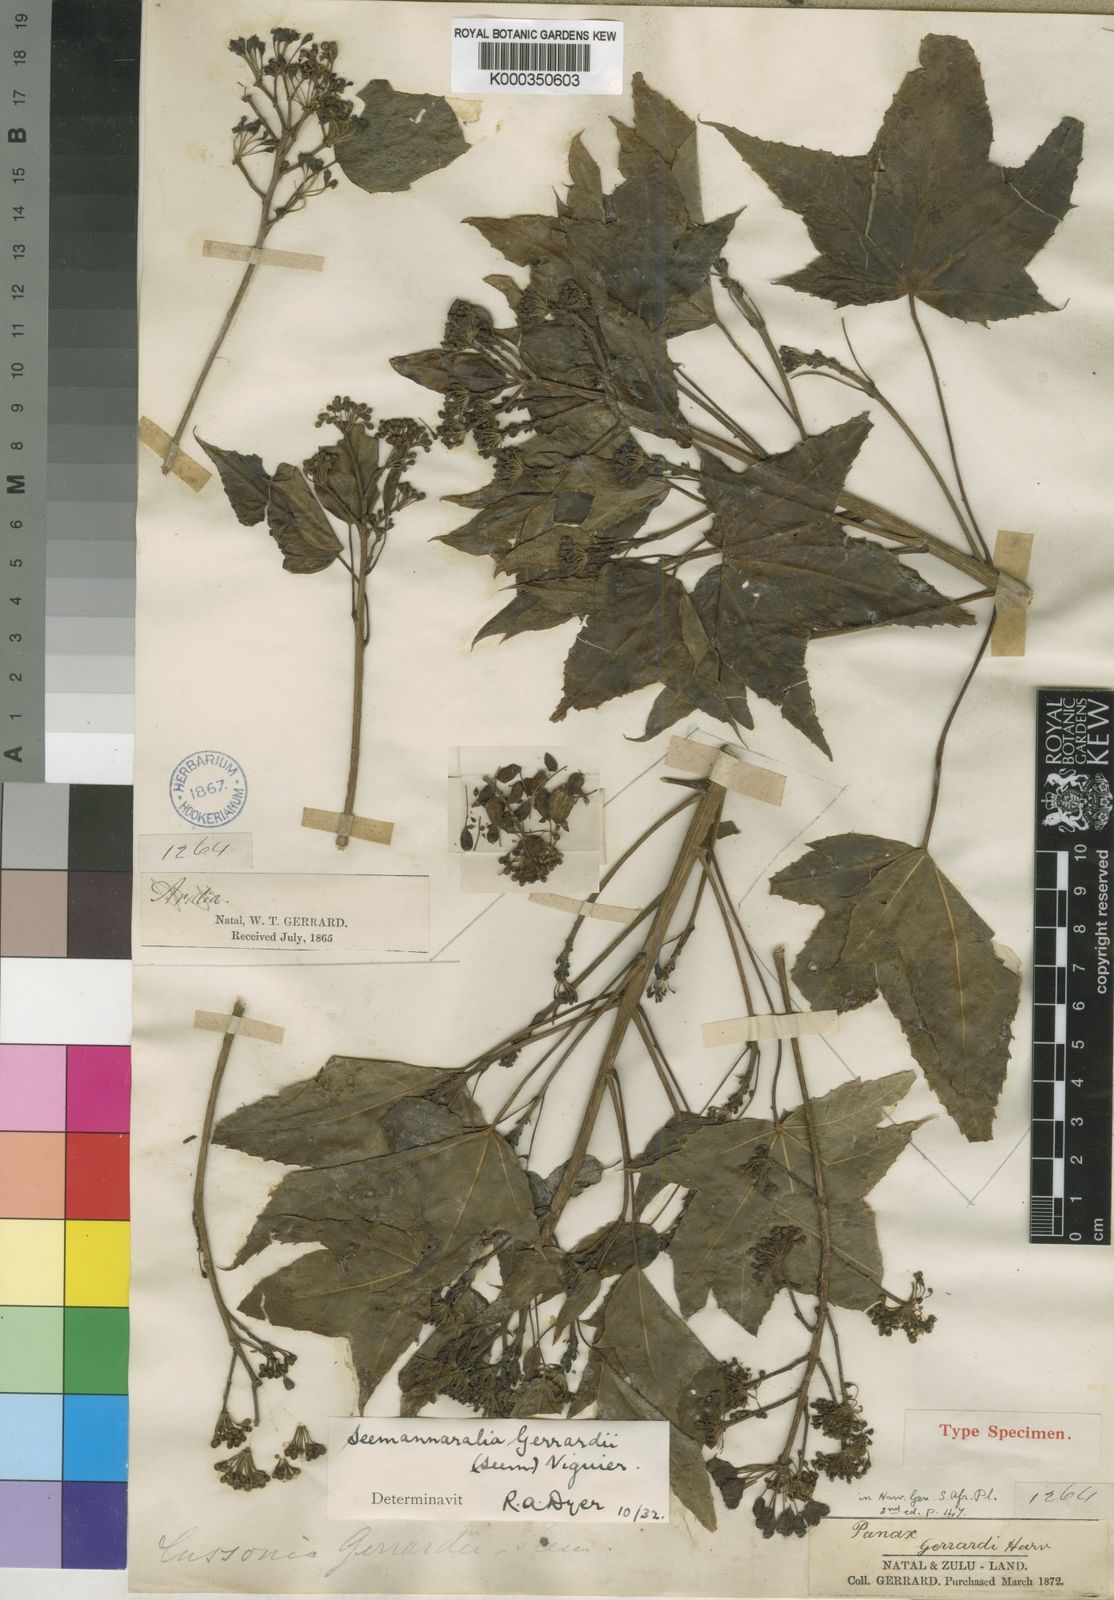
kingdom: Plantae
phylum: Tracheophyta
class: Magnoliopsida
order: Apiales
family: Araliaceae
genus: Seemannaralia
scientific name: Seemannaralia gerrardii
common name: Wild-maple
